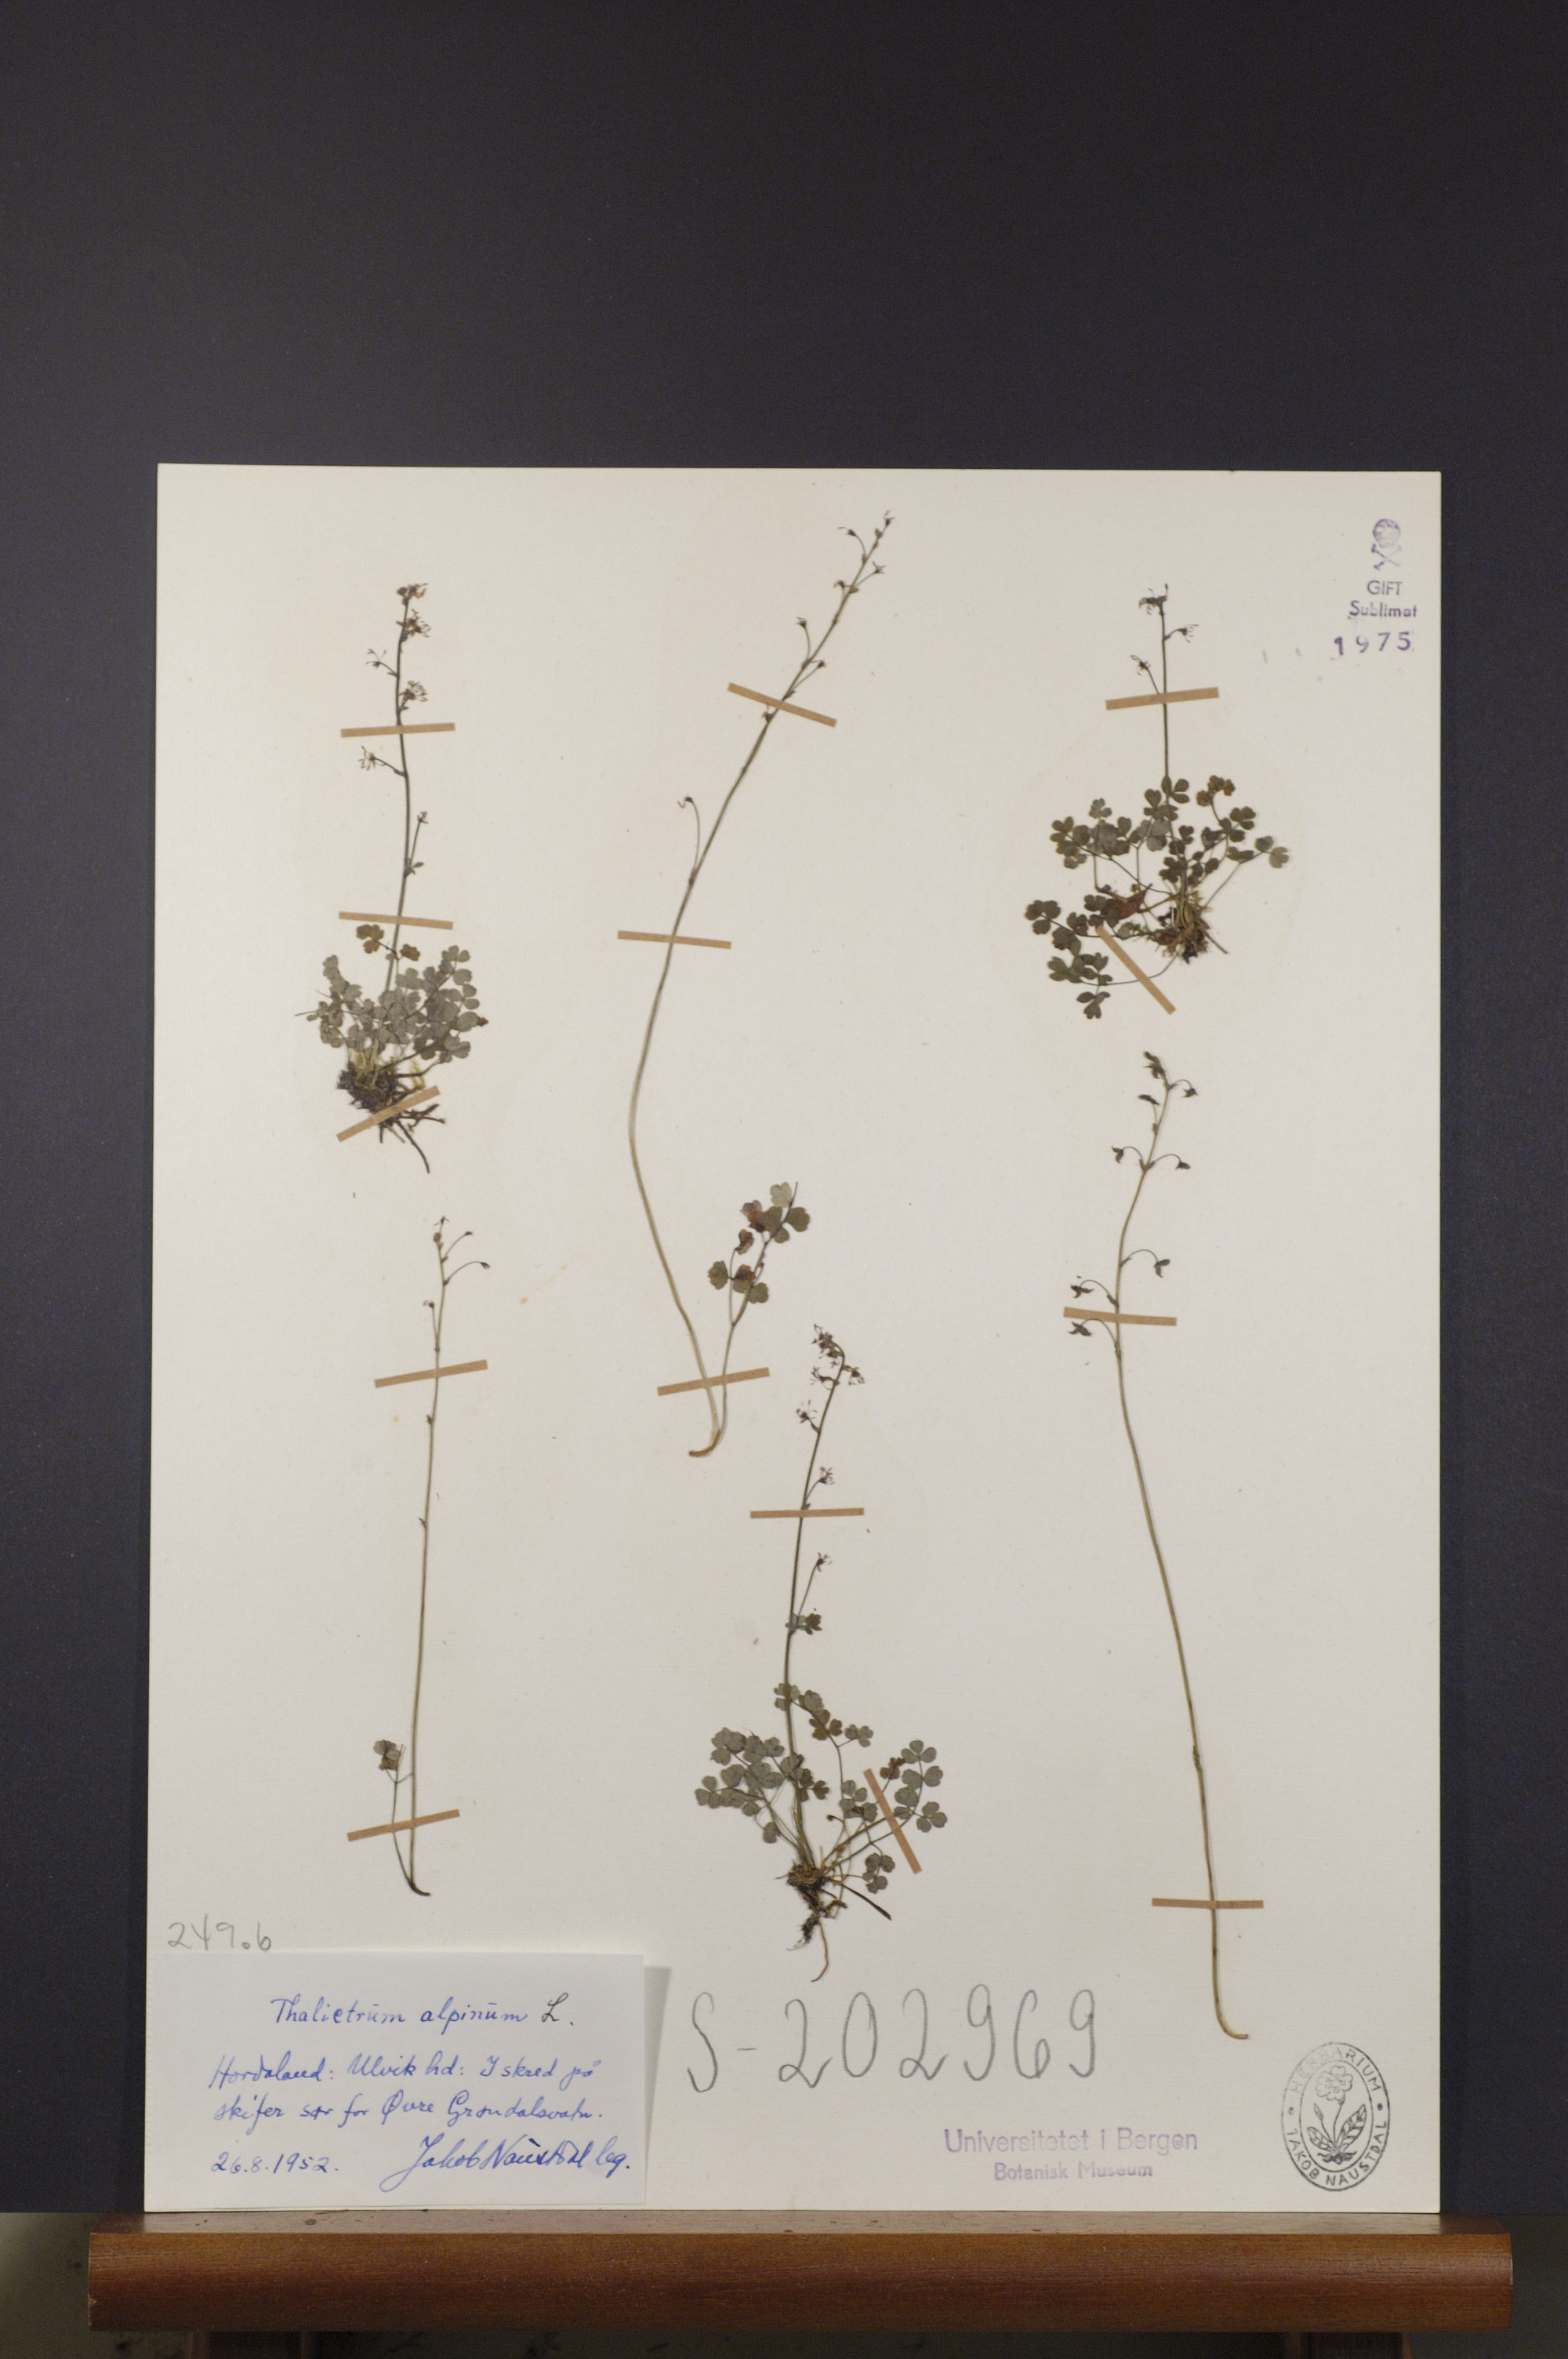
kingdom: Plantae
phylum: Tracheophyta
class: Magnoliopsida
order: Ranunculales
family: Ranunculaceae
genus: Thalictrum
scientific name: Thalictrum alpinum
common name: Alpine meadow-rue
